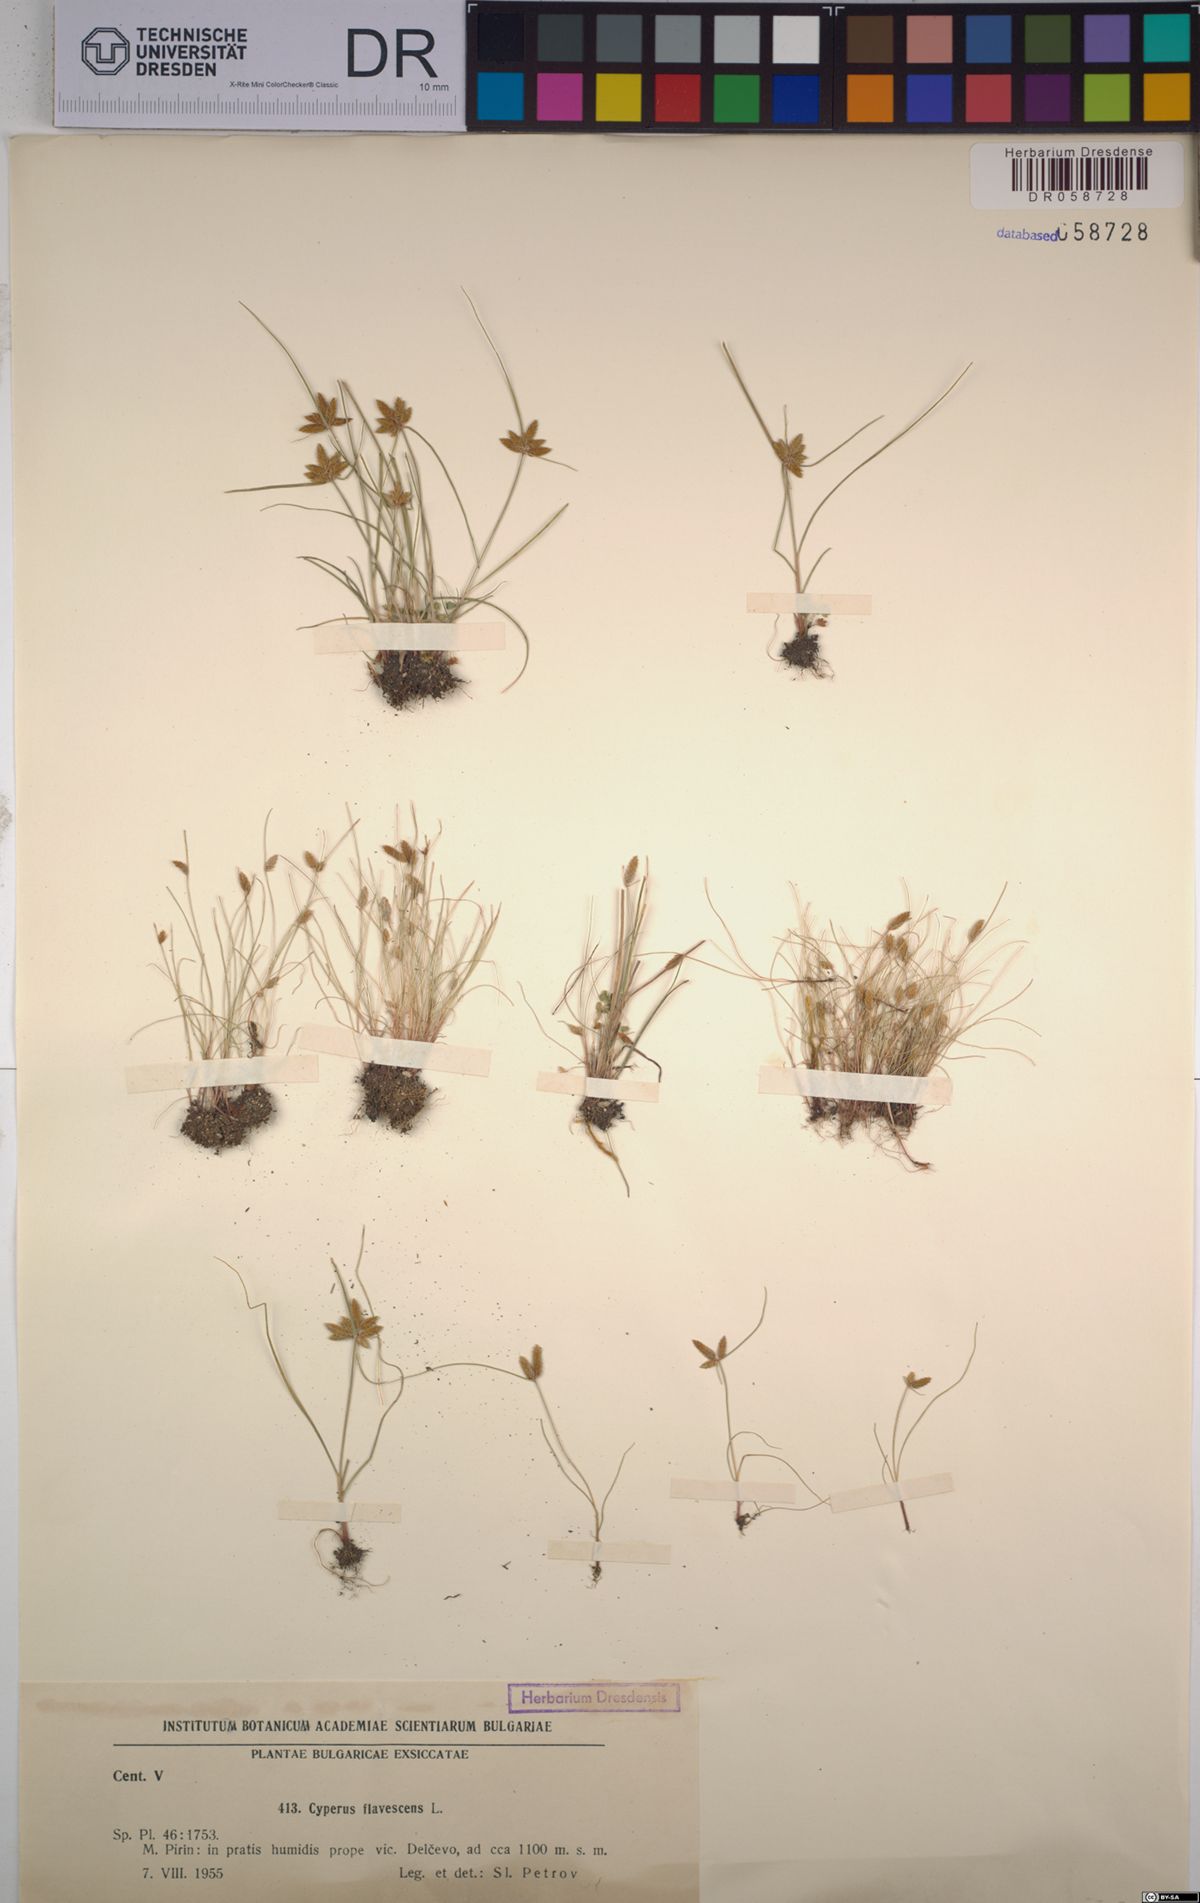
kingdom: Plantae
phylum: Tracheophyta
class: Liliopsida
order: Poales
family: Cyperaceae
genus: Cyperus
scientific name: Cyperus flavescens
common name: Yellow galingale
